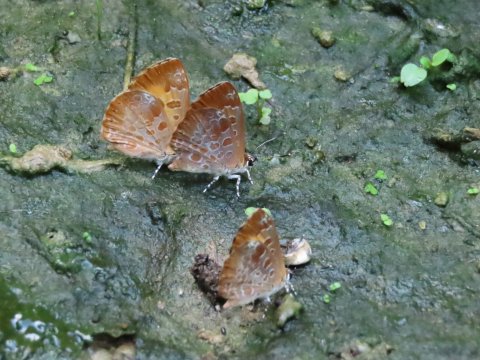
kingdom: Animalia
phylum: Arthropoda
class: Insecta
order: Lepidoptera
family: Lycaenidae
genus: Feniseca
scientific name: Feniseca tarquinius
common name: Harvester
